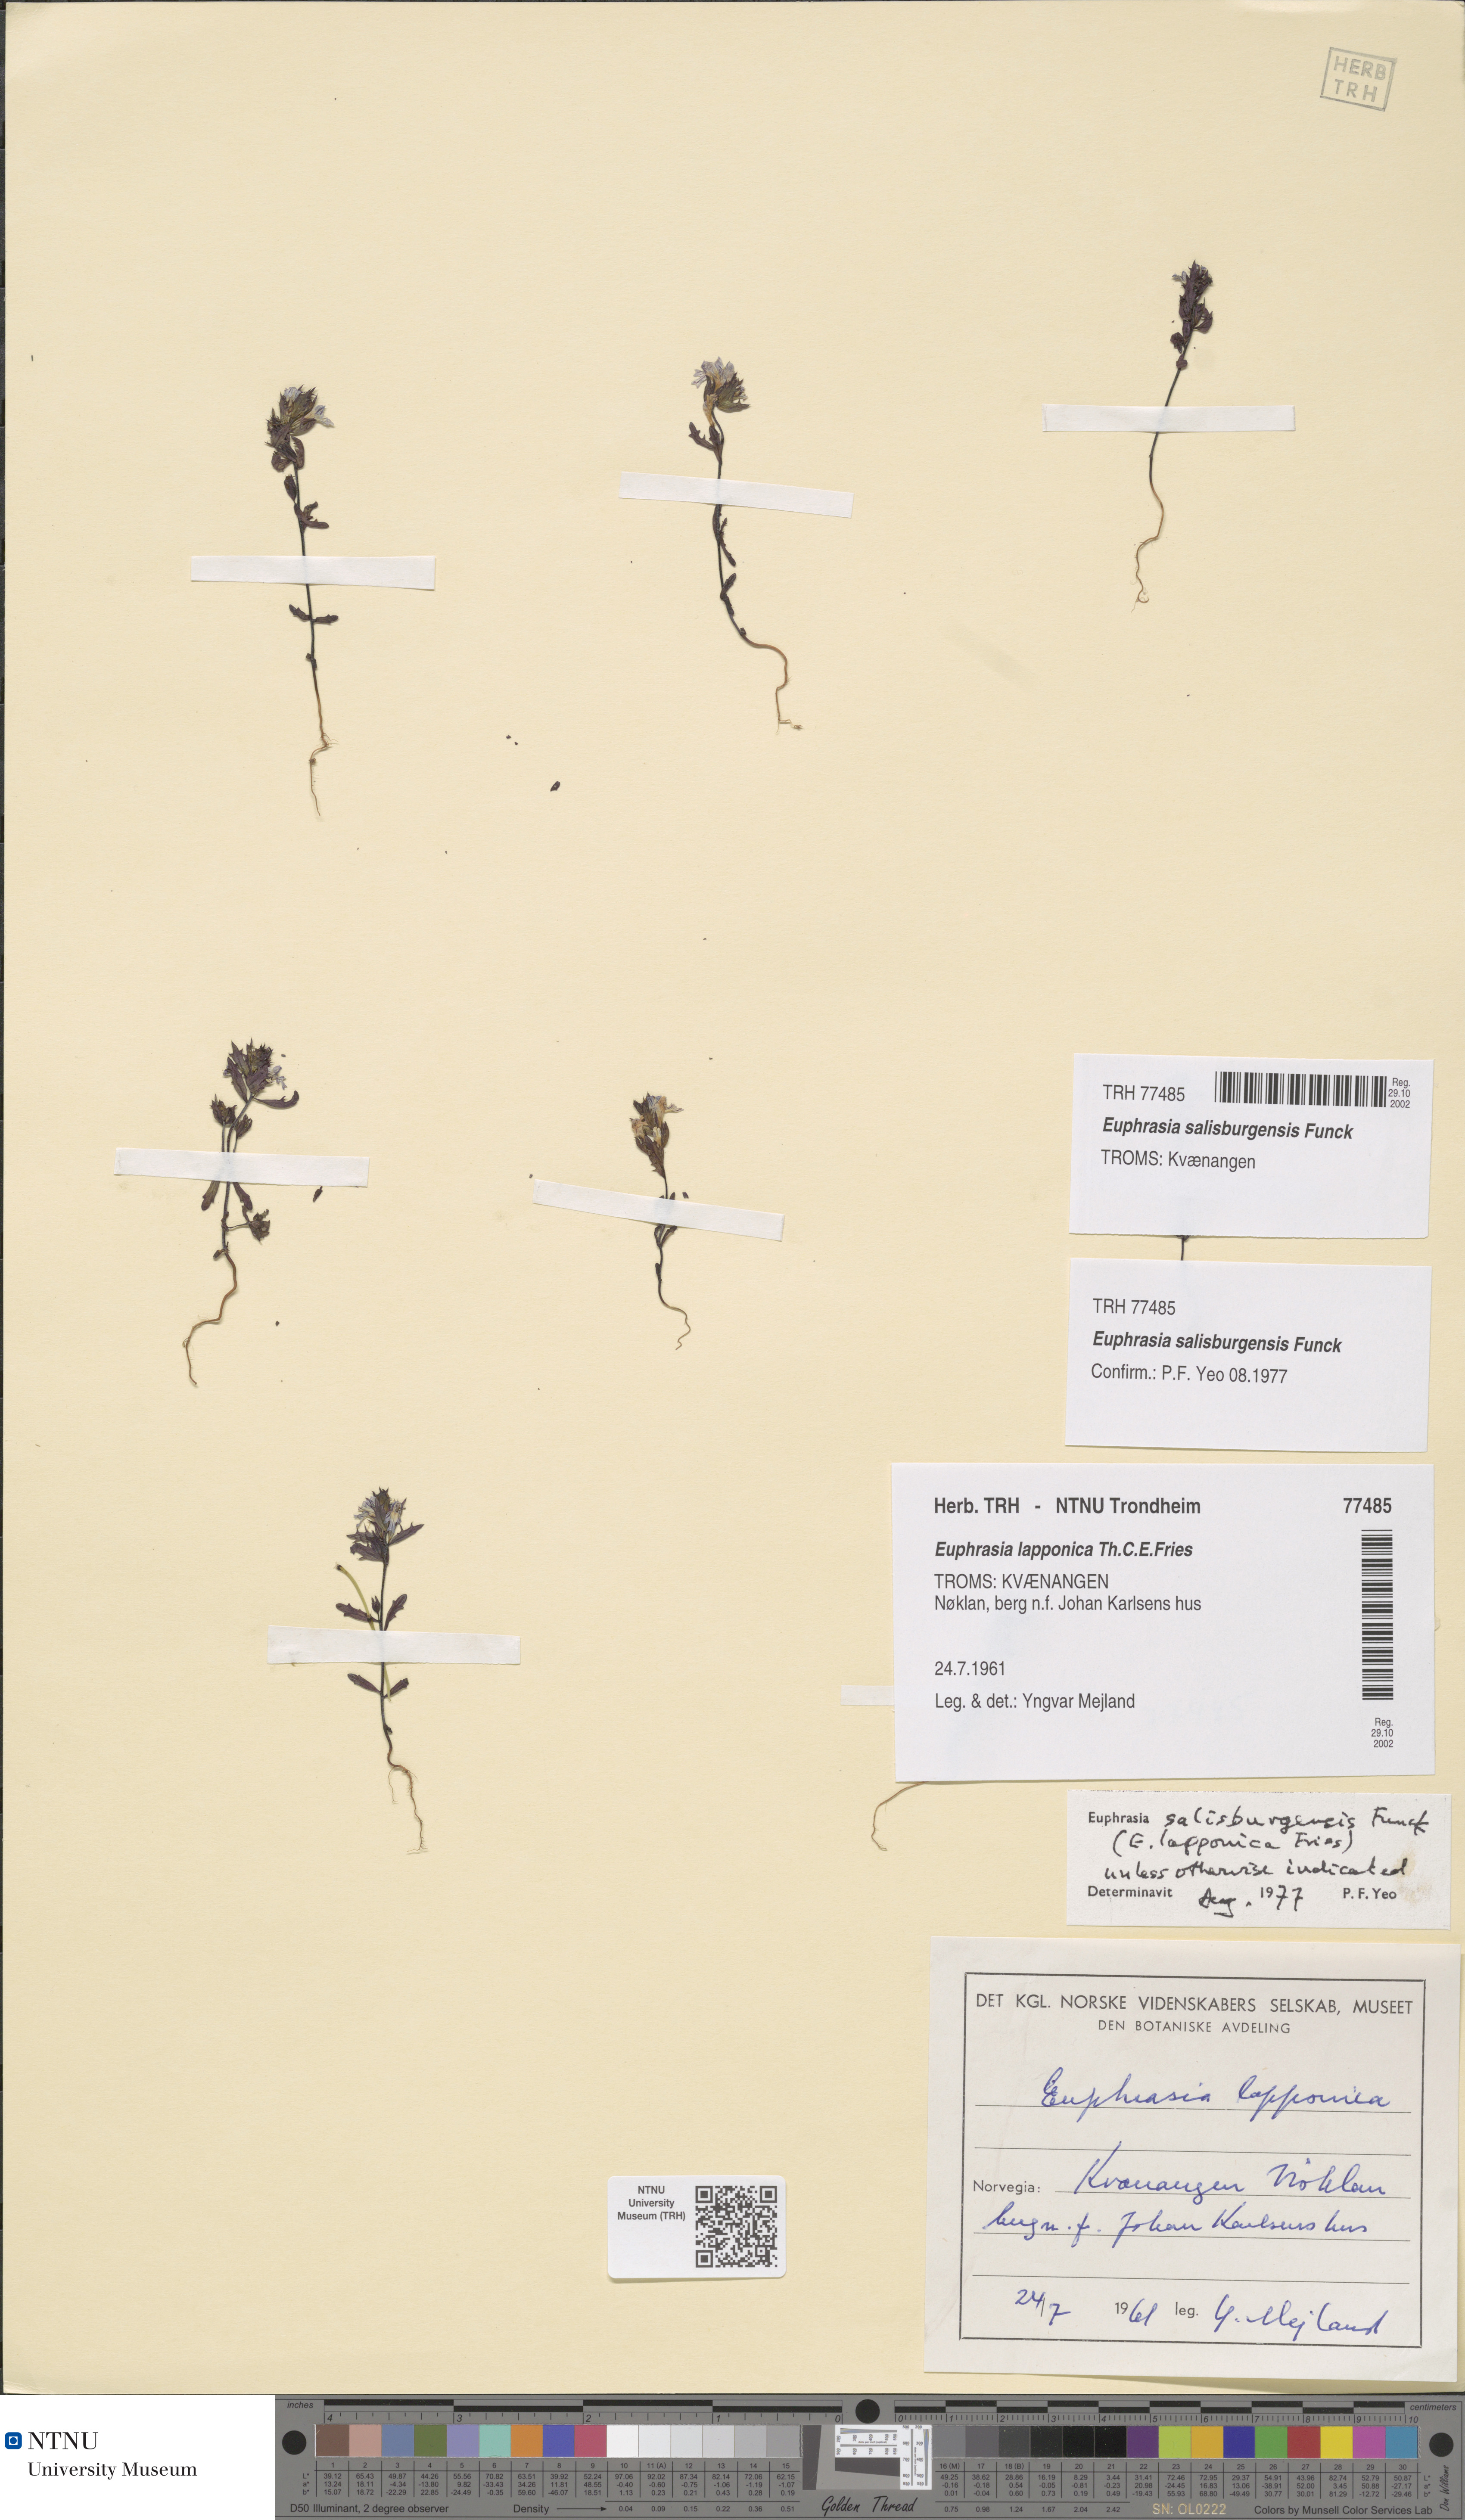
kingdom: Plantae
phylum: Tracheophyta
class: Magnoliopsida
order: Lamiales
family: Orobanchaceae
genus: Euphrasia
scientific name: Euphrasia salisburgensis
